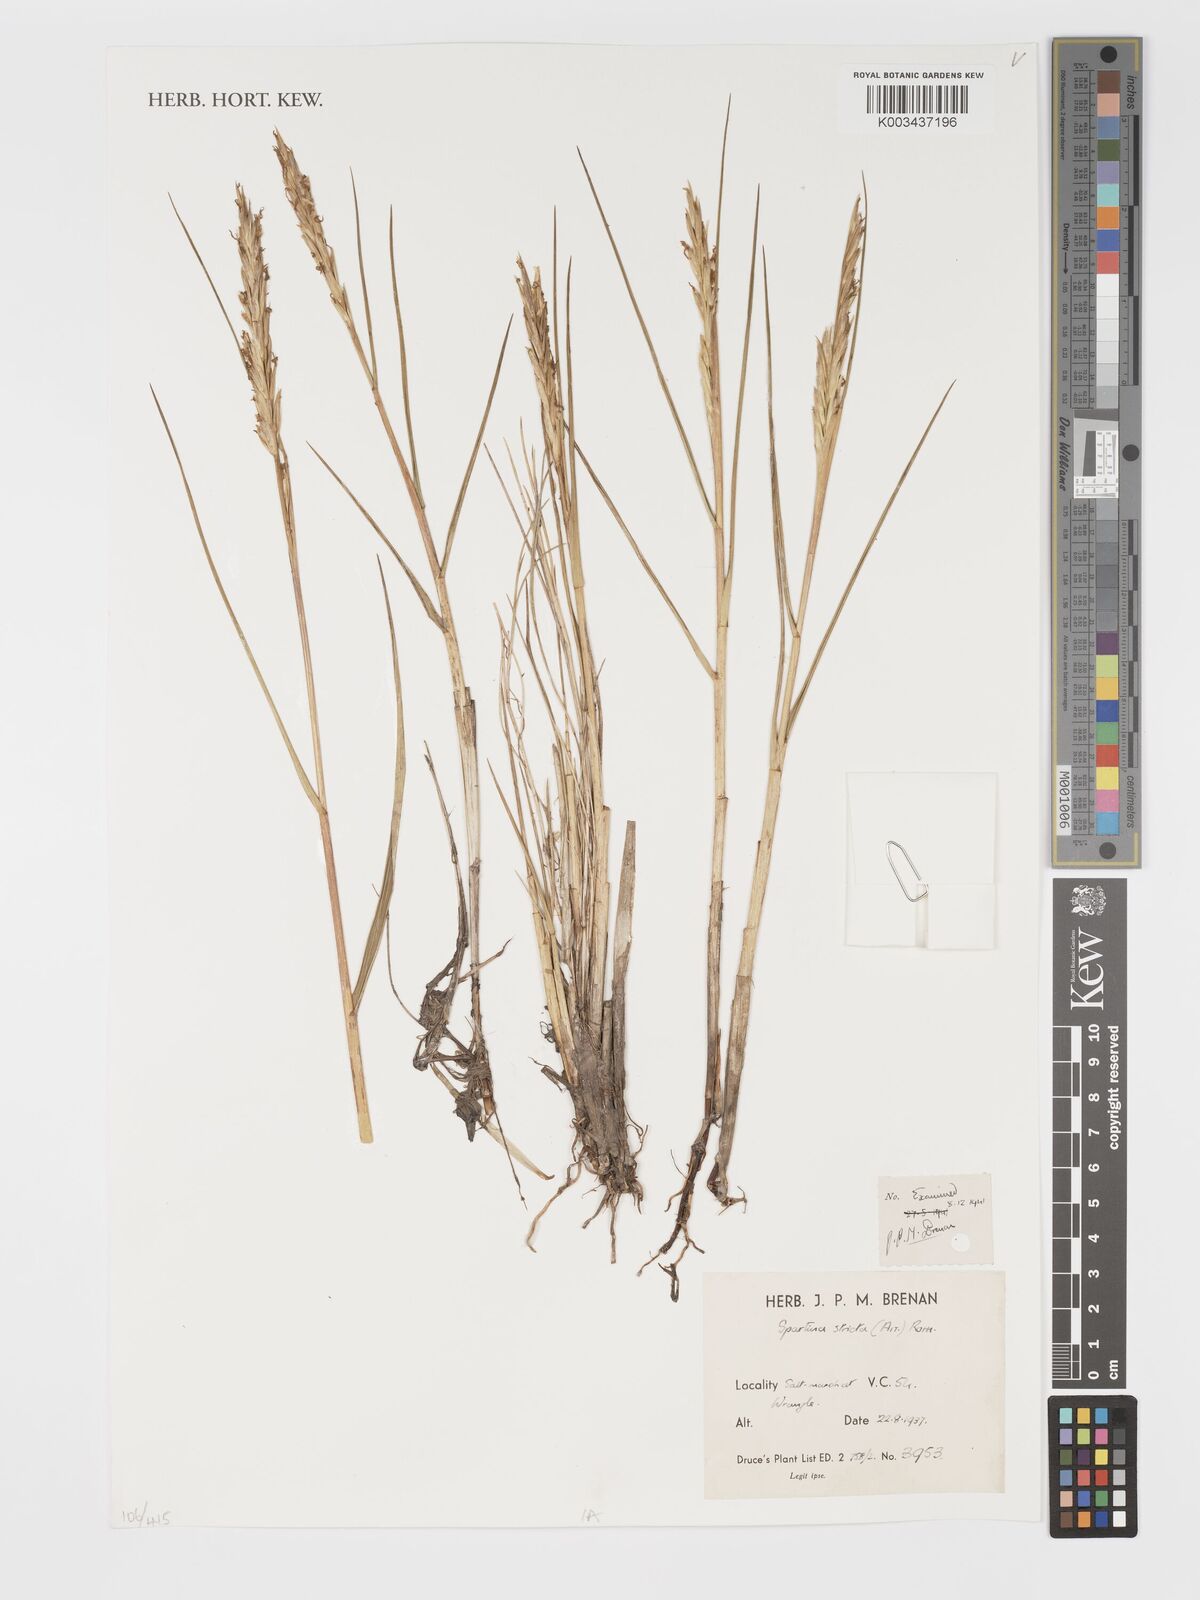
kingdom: Plantae
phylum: Tracheophyta
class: Liliopsida
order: Poales
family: Poaceae
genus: Sporobolus
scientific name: Sporobolus maritimus
